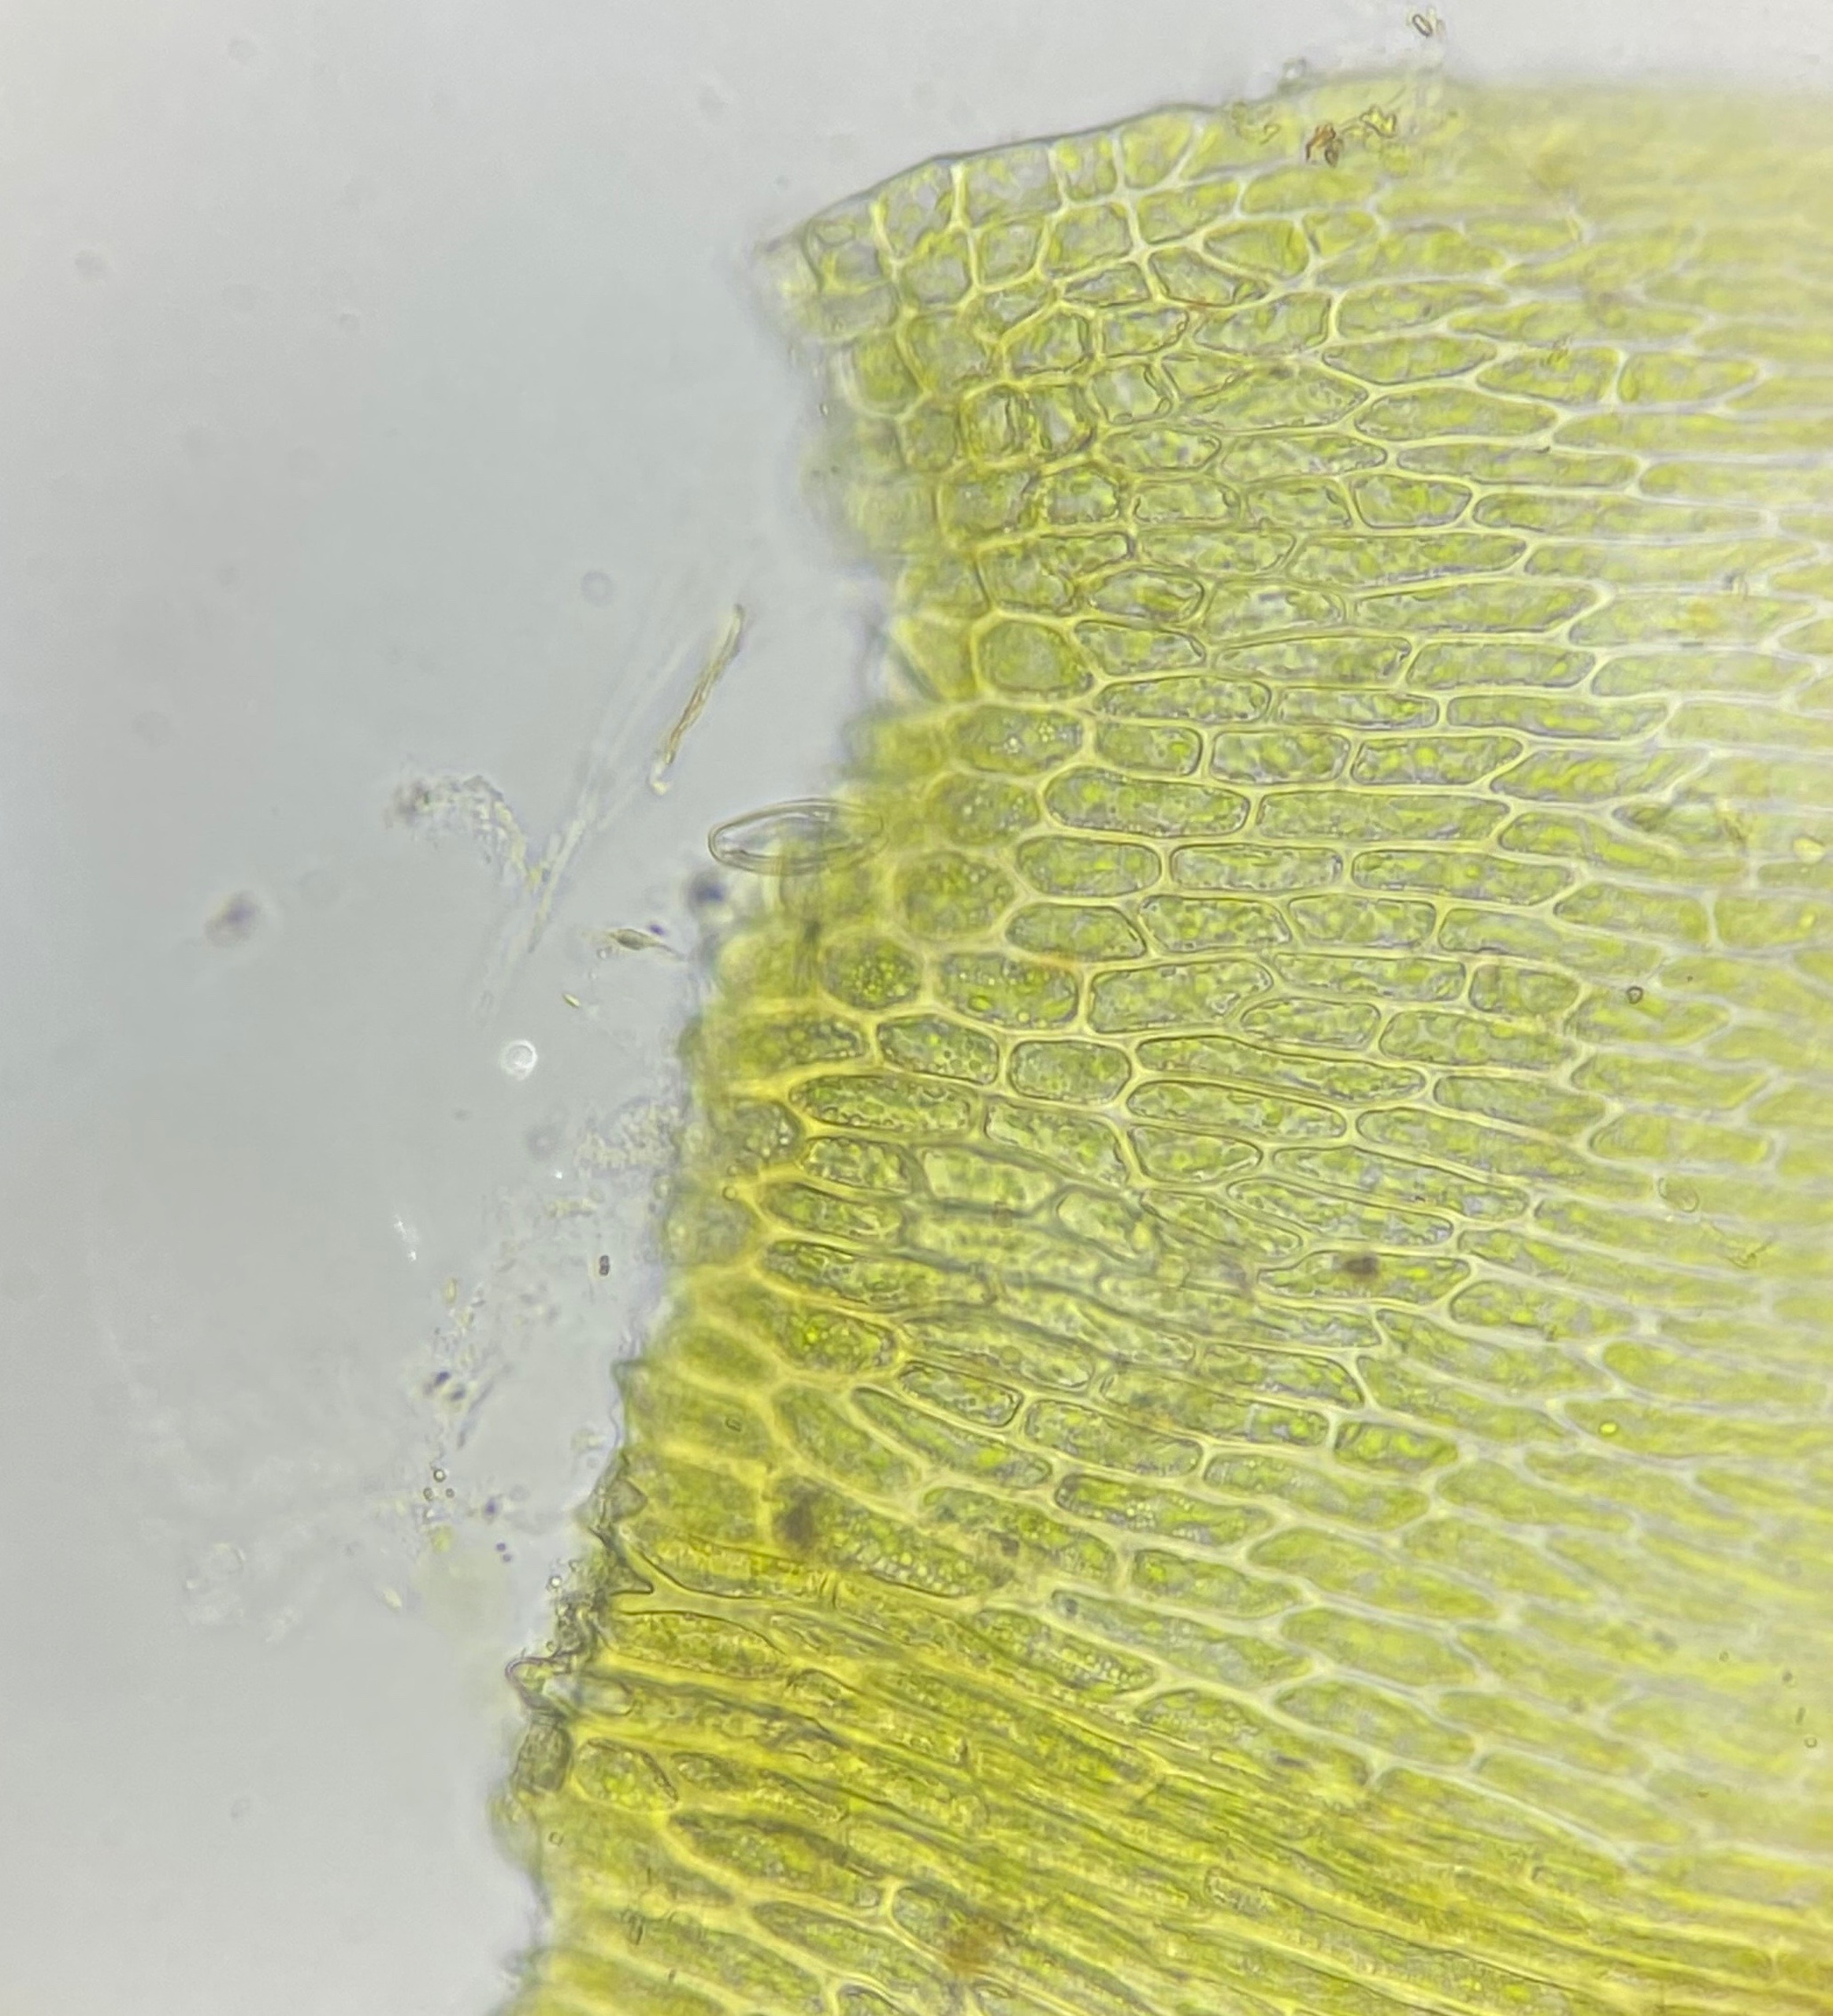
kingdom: Plantae
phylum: Bryophyta
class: Bryopsida
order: Hypnales
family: Amblystegiaceae
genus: Drepanocladus
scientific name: Drepanocladus aduncus
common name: Kær-seglmos
